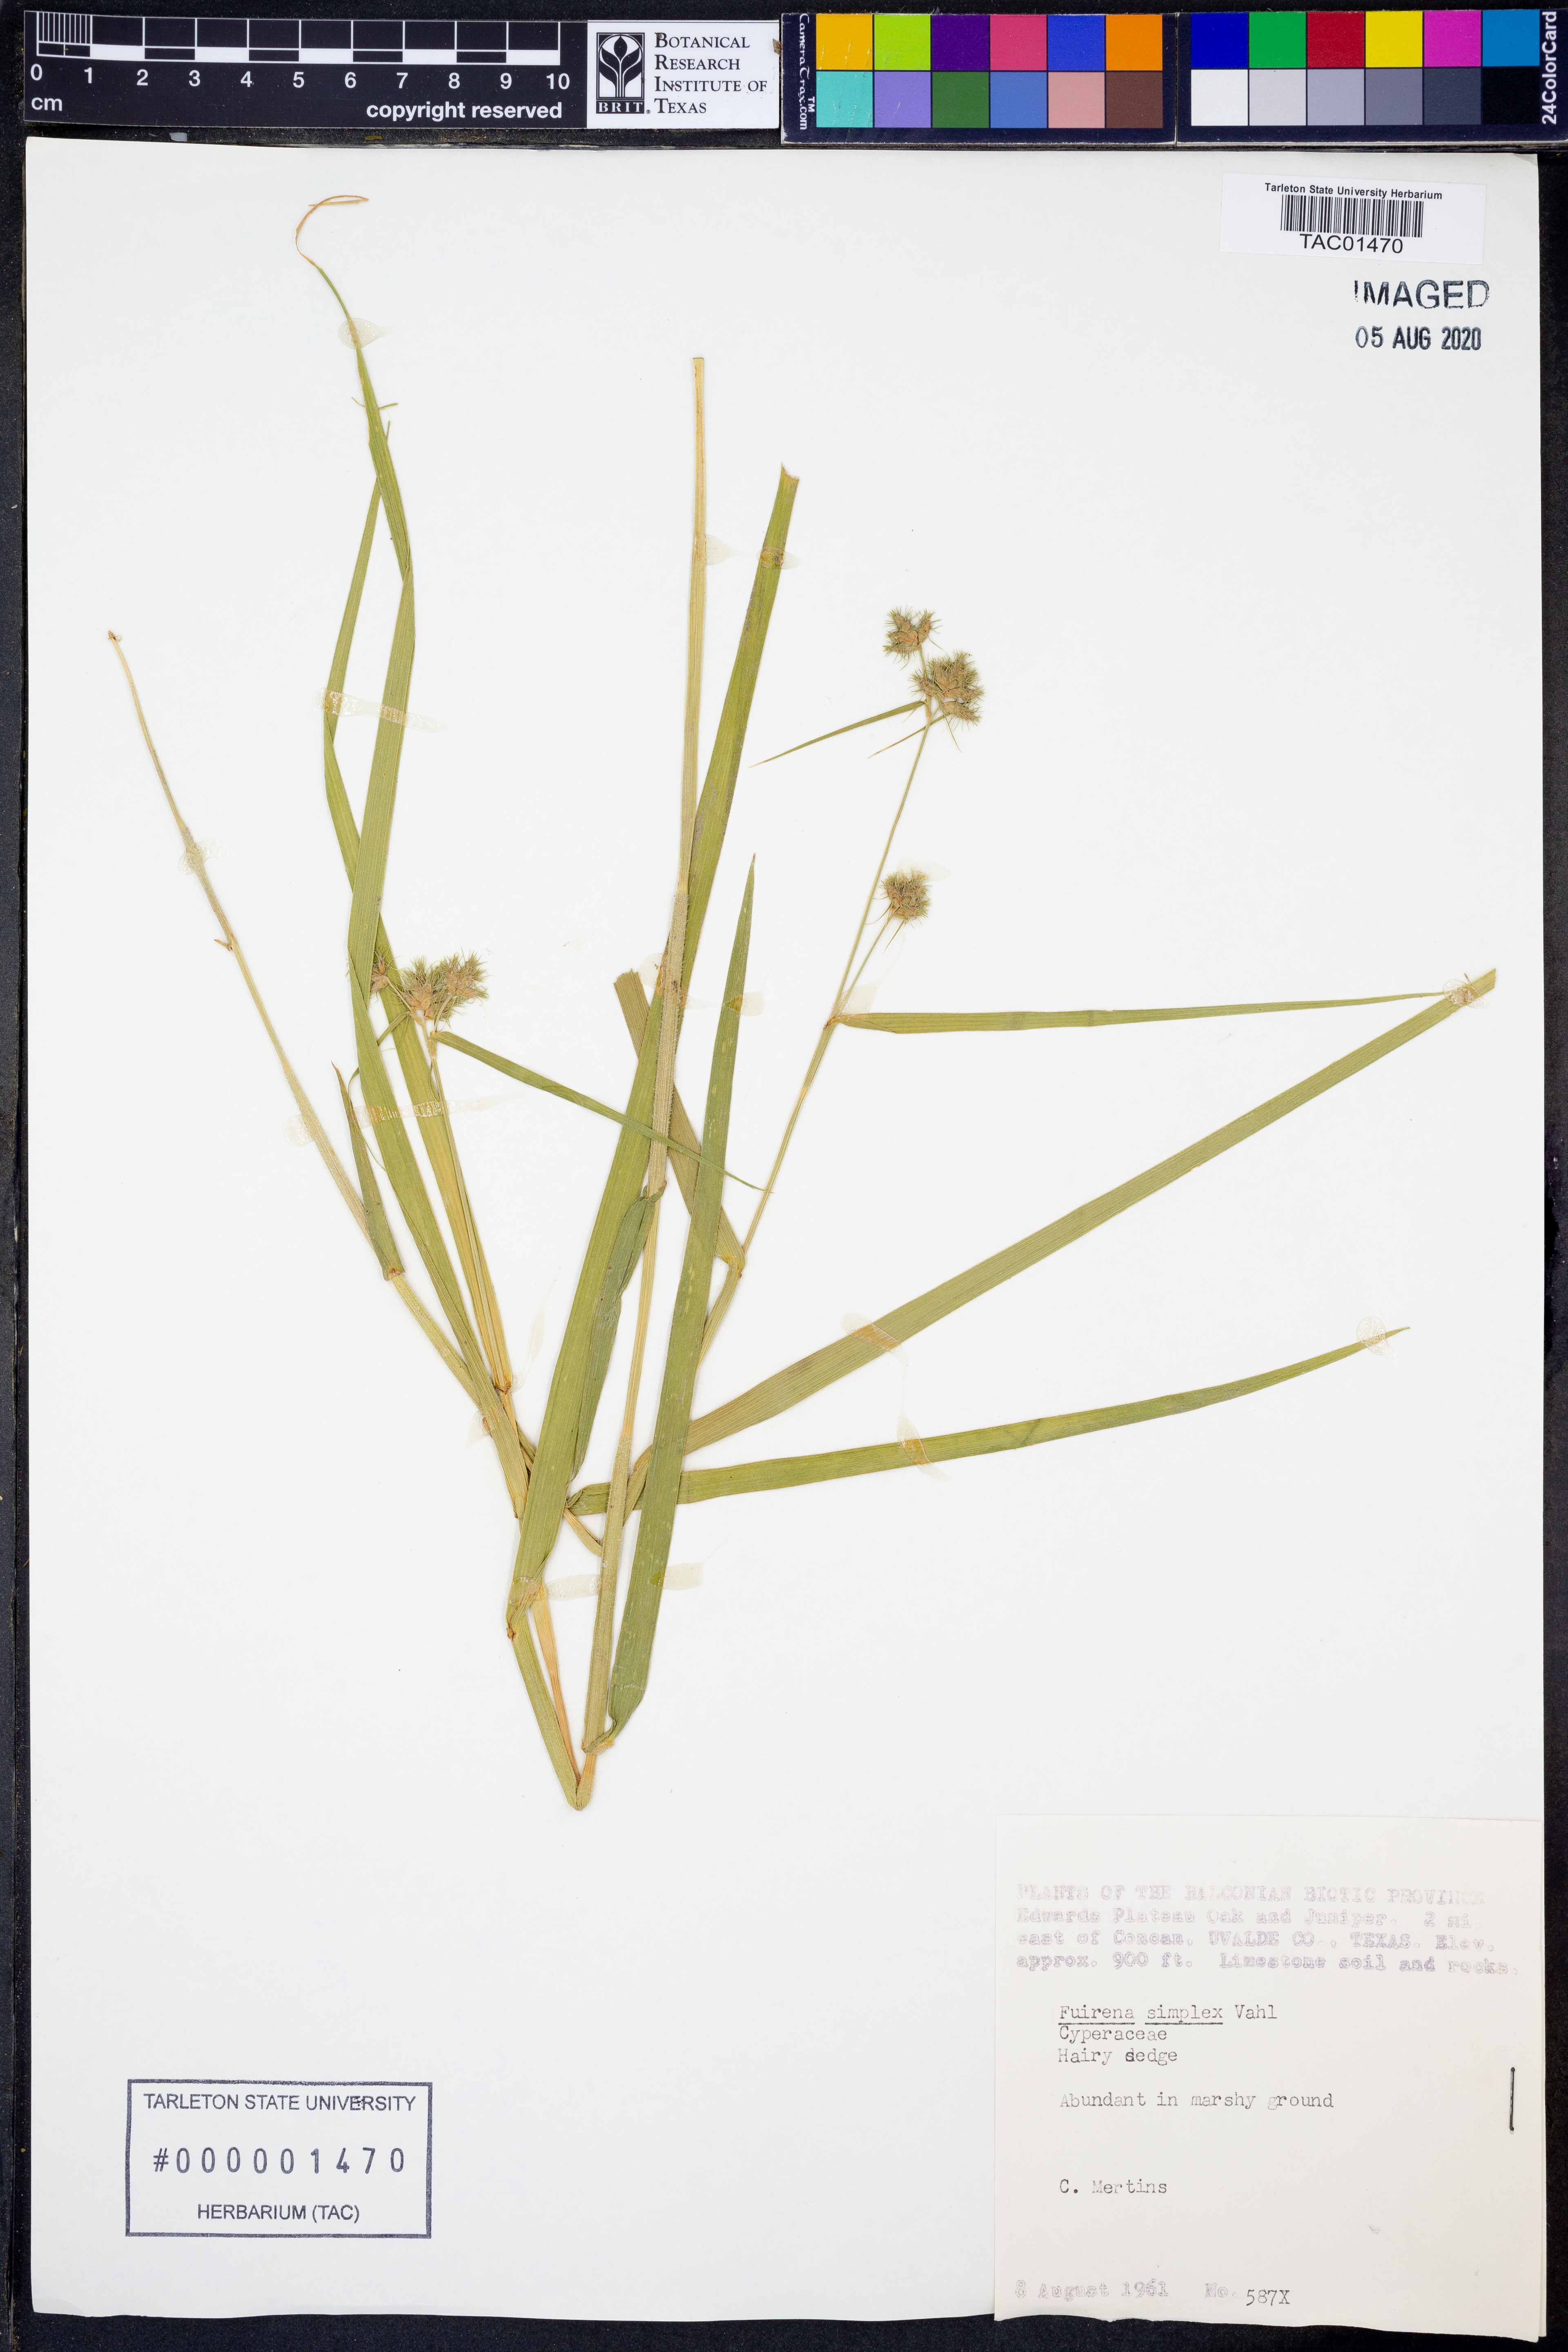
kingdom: Plantae
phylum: Tracheophyta
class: Liliopsida
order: Poales
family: Cyperaceae
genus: Fuirena
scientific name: Fuirena simplex
